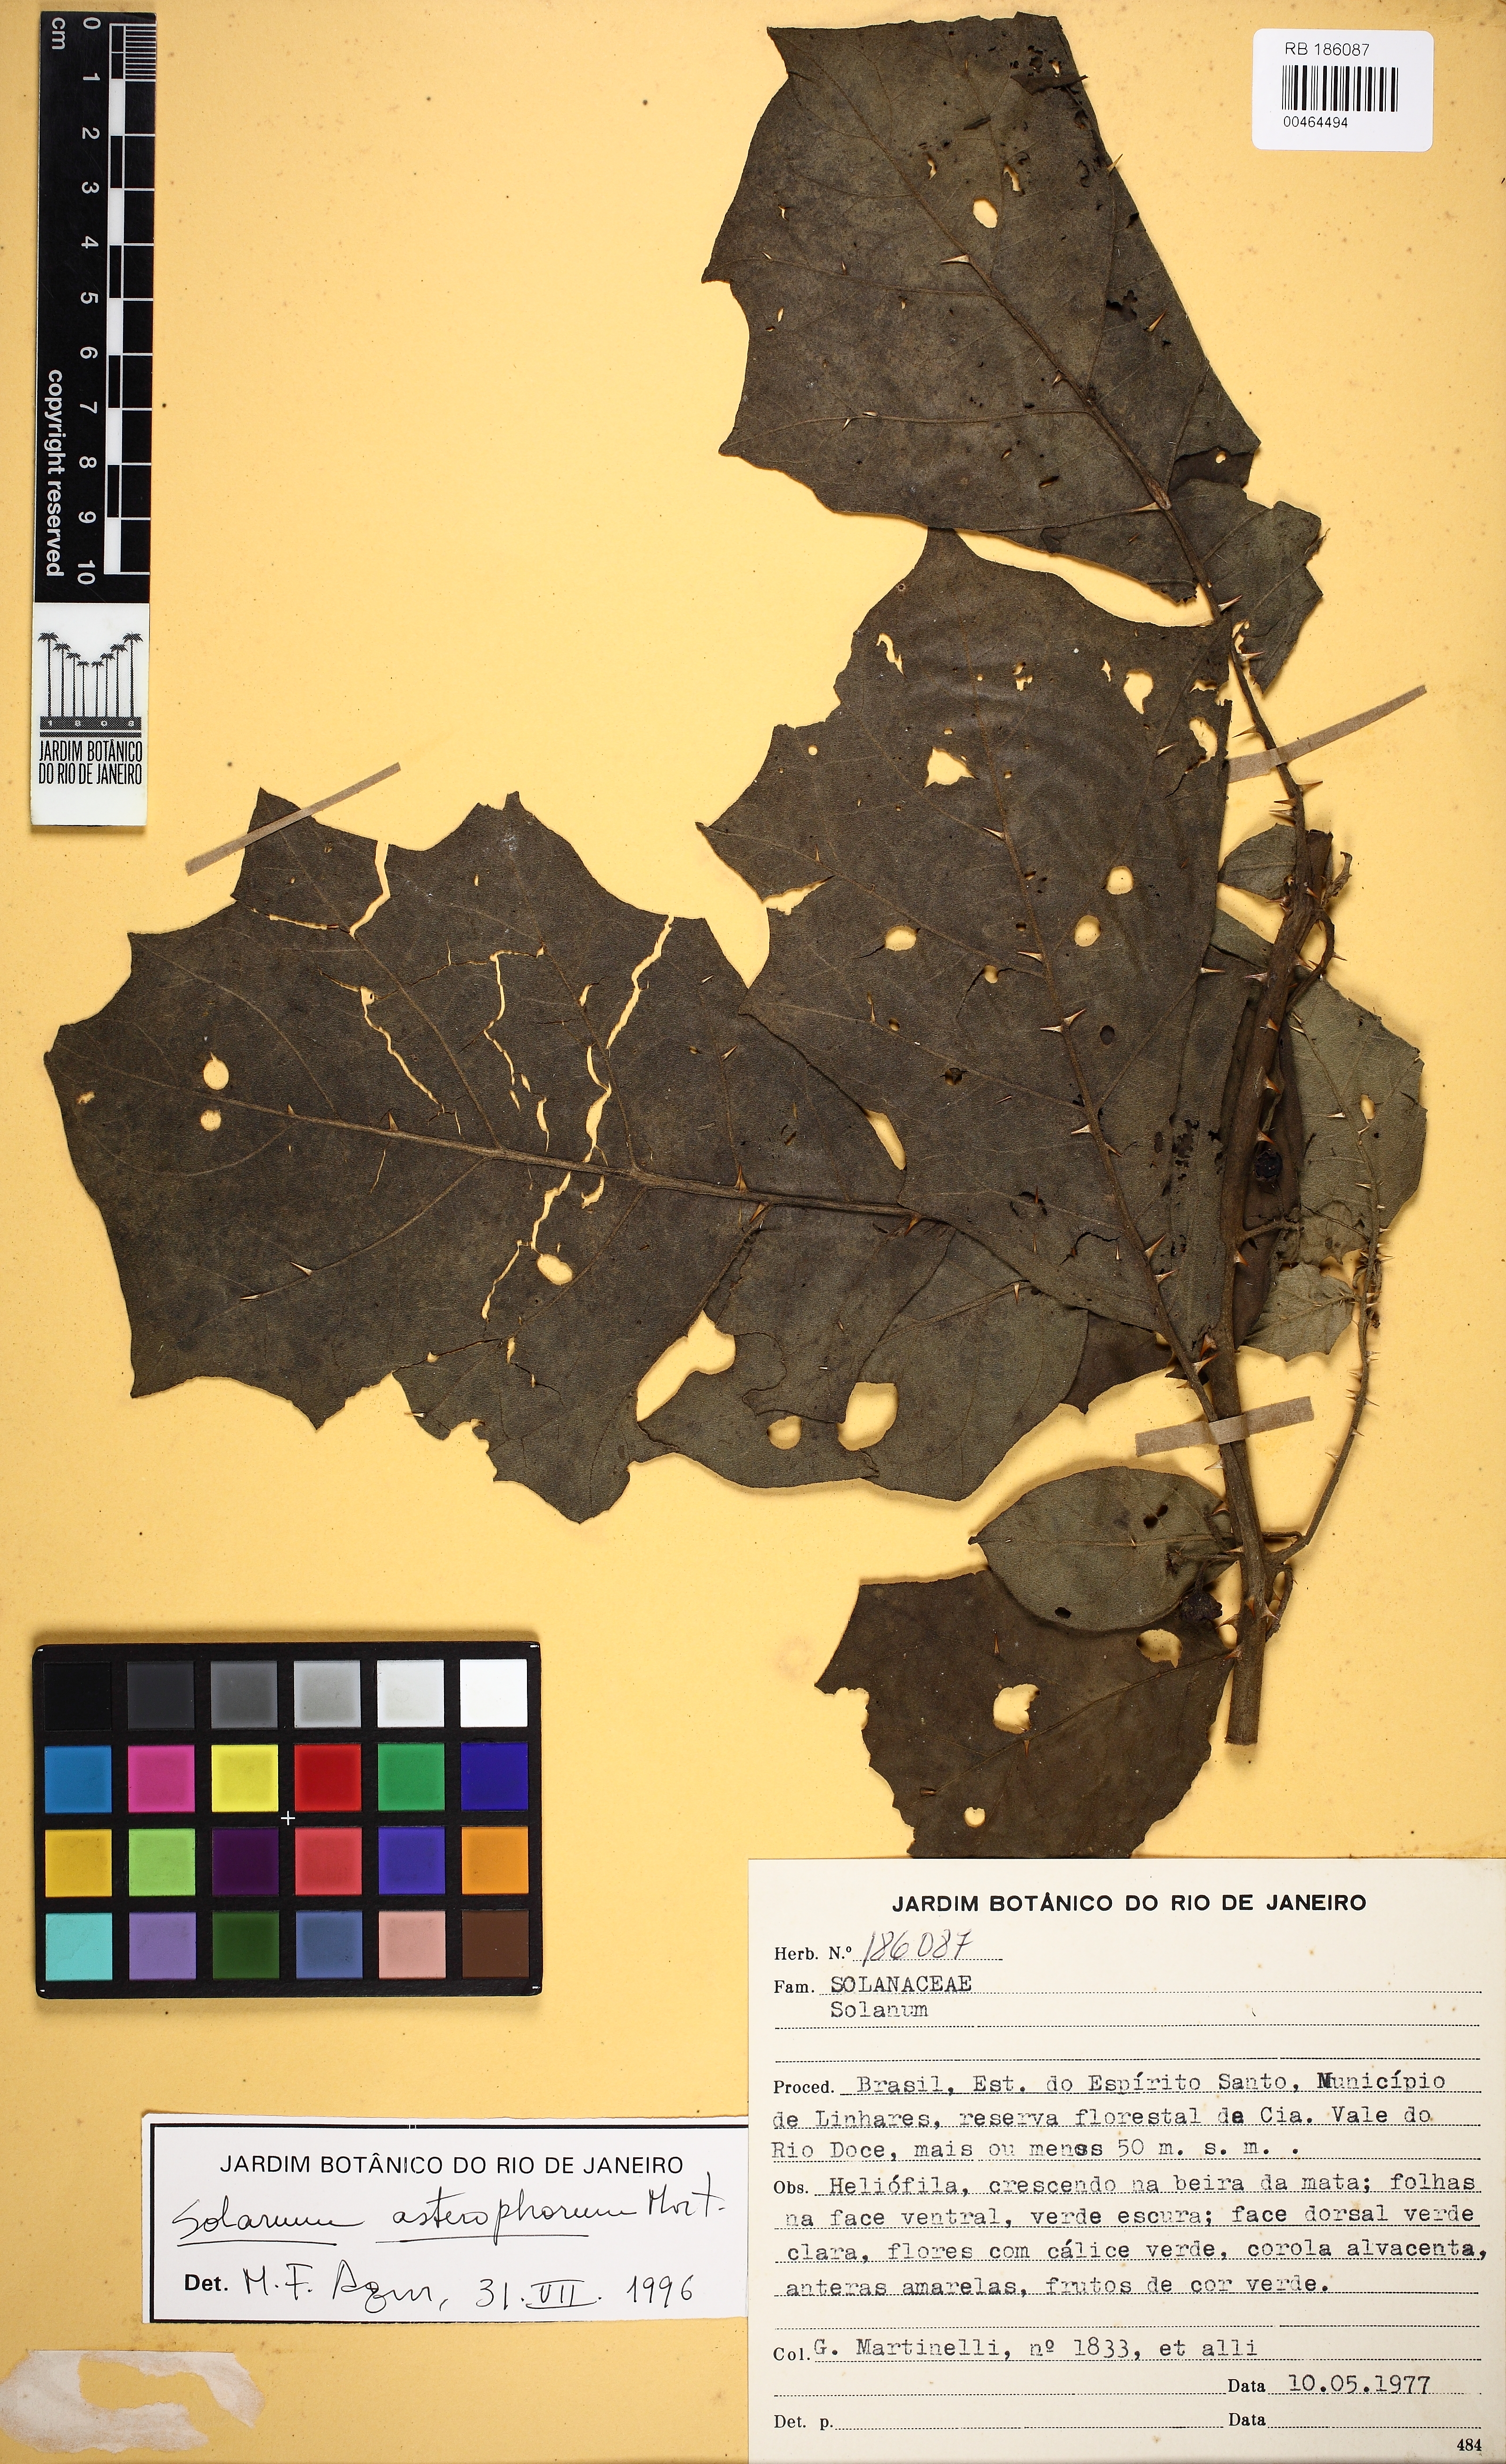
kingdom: Plantae
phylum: Tracheophyta
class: Magnoliopsida
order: Solanales
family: Solanaceae
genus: Solanum
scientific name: Solanum asterophorum
